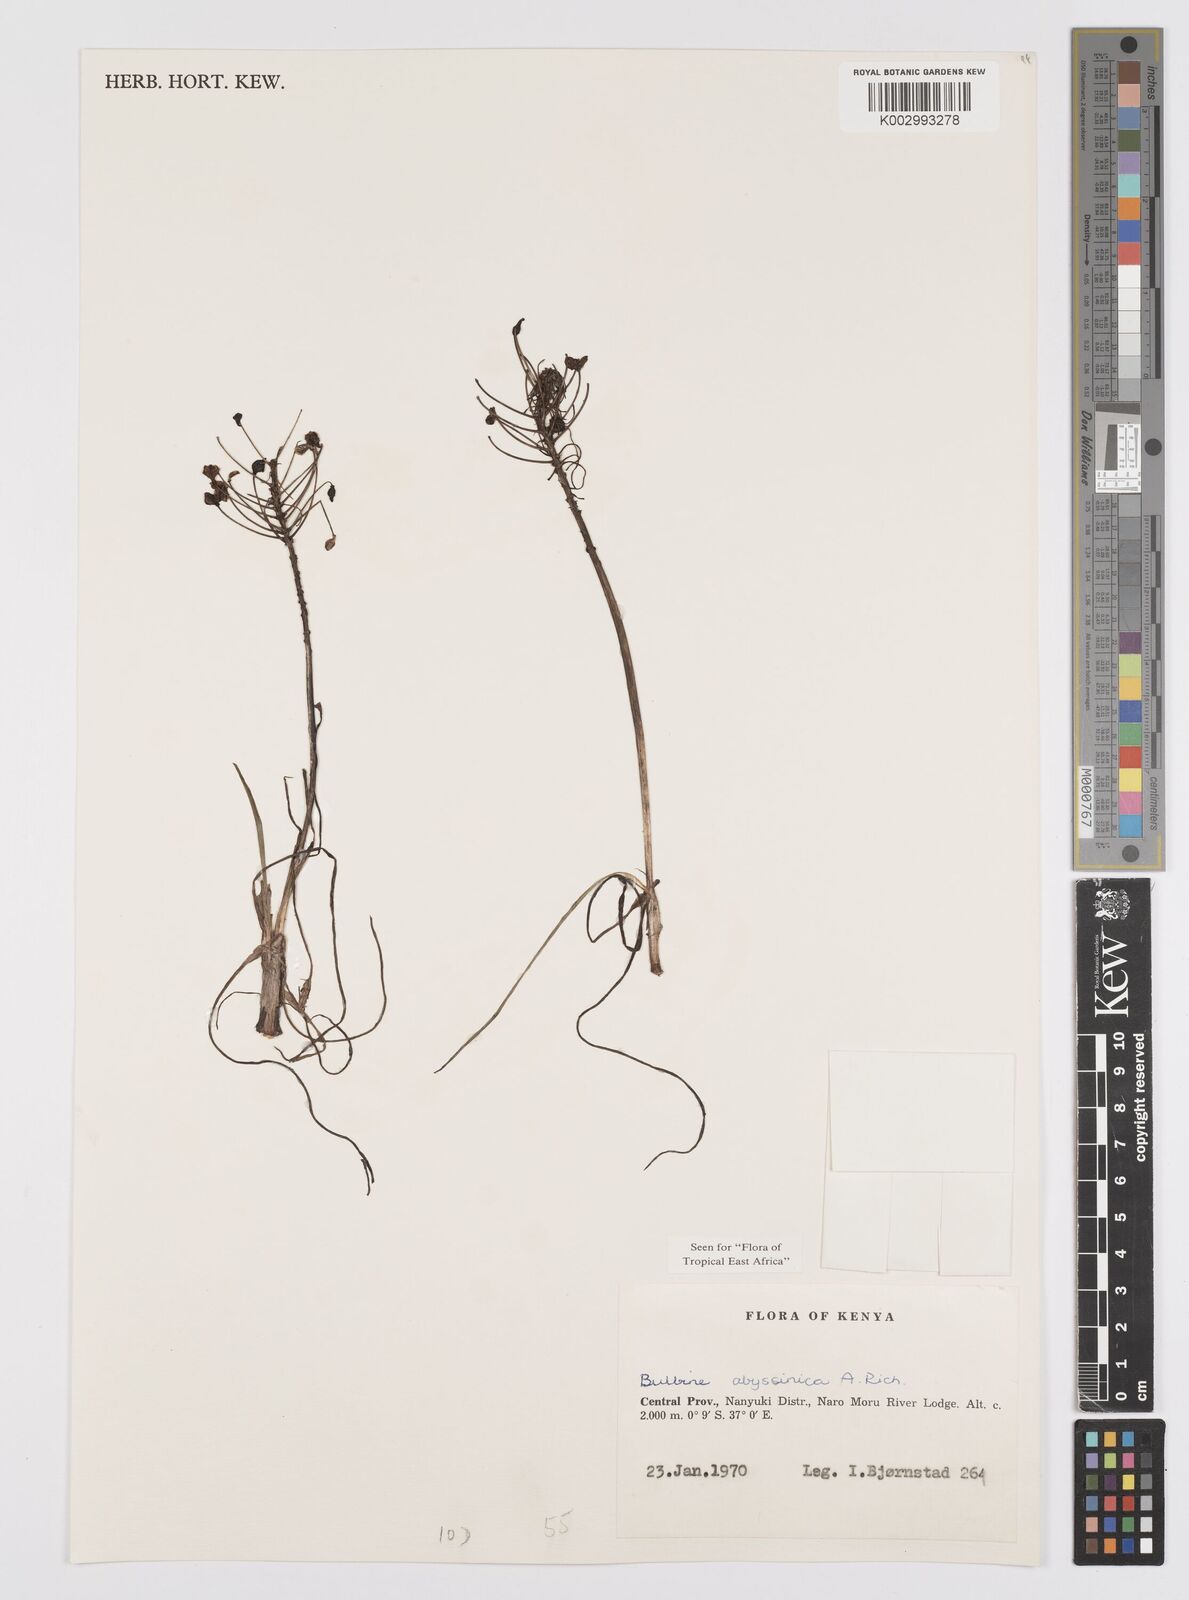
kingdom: Plantae
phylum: Tracheophyta
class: Liliopsida
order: Asparagales
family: Asphodelaceae
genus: Bulbine
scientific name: Bulbine abyssinica
